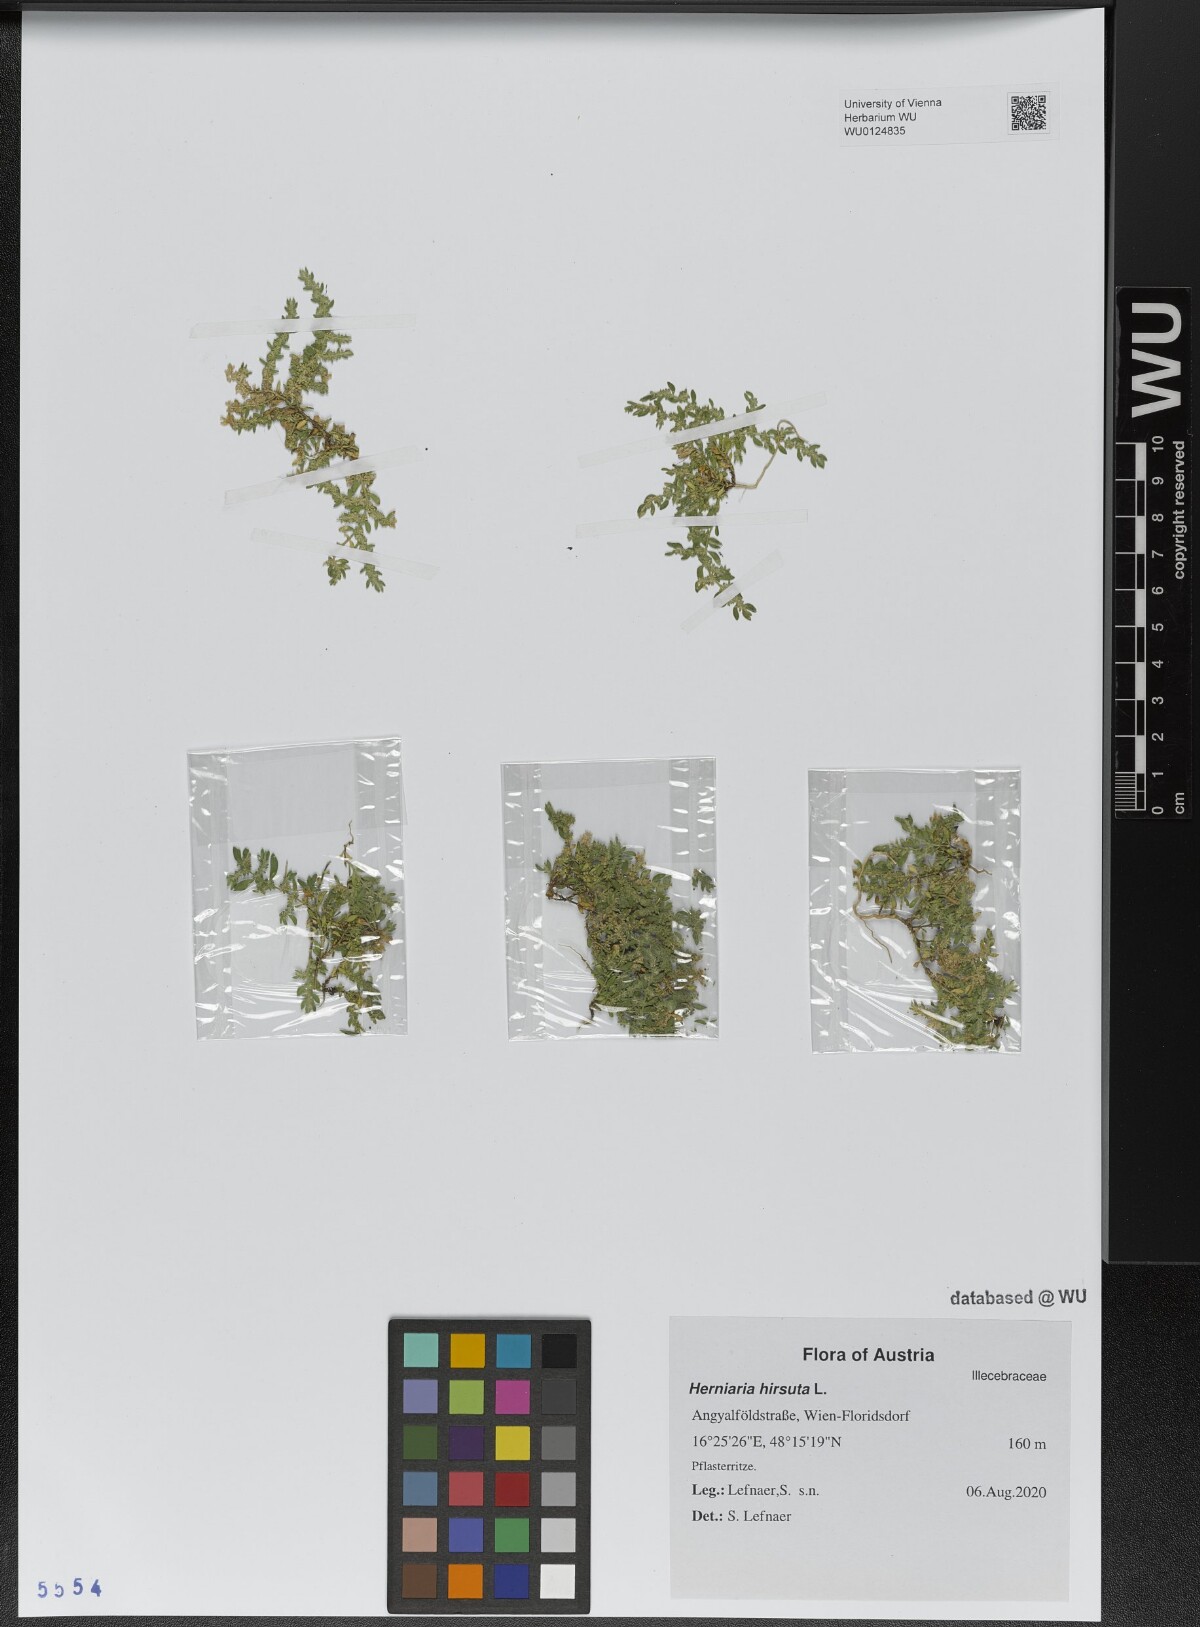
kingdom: Plantae
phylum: Tracheophyta
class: Magnoliopsida
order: Caryophyllales
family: Caryophyllaceae
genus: Herniaria
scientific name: Herniaria hirsuta
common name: Hairy rupturewort
